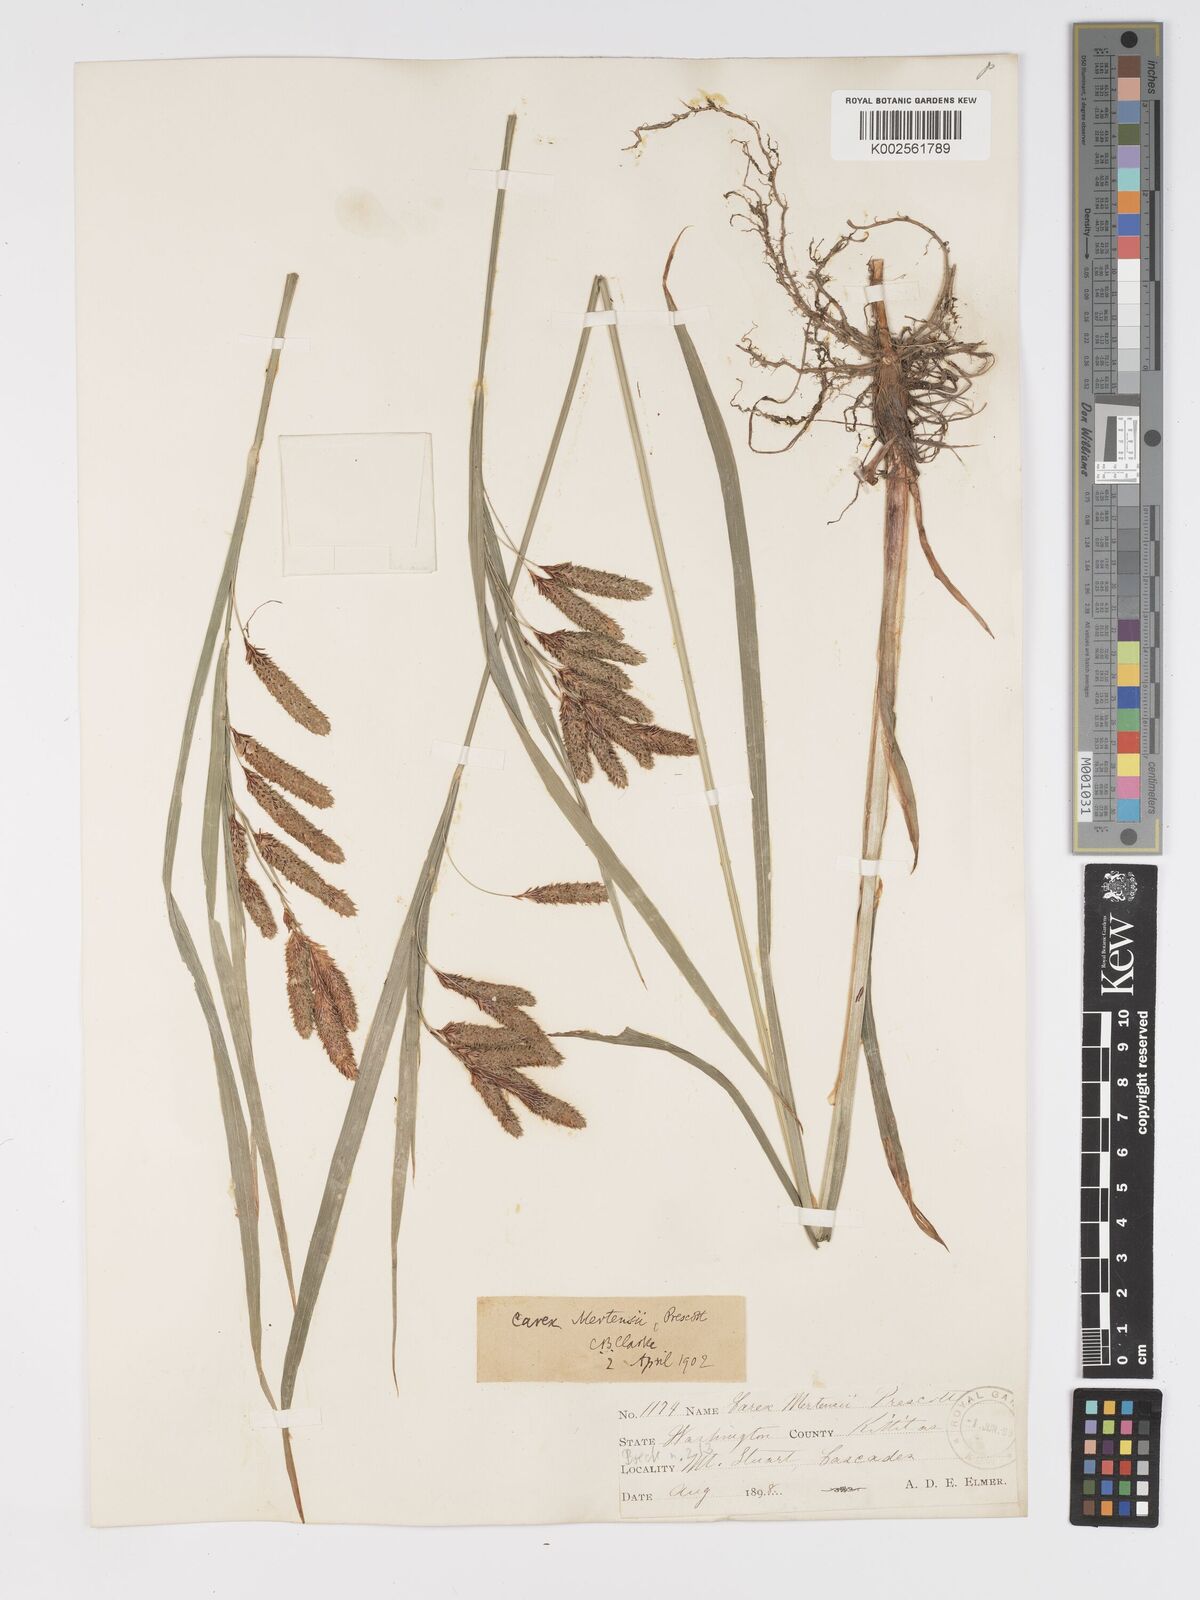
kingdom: Plantae
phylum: Tracheophyta
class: Liliopsida
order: Poales
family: Cyperaceae
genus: Carex
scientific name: Carex mertensii
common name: Mertens' sedge
